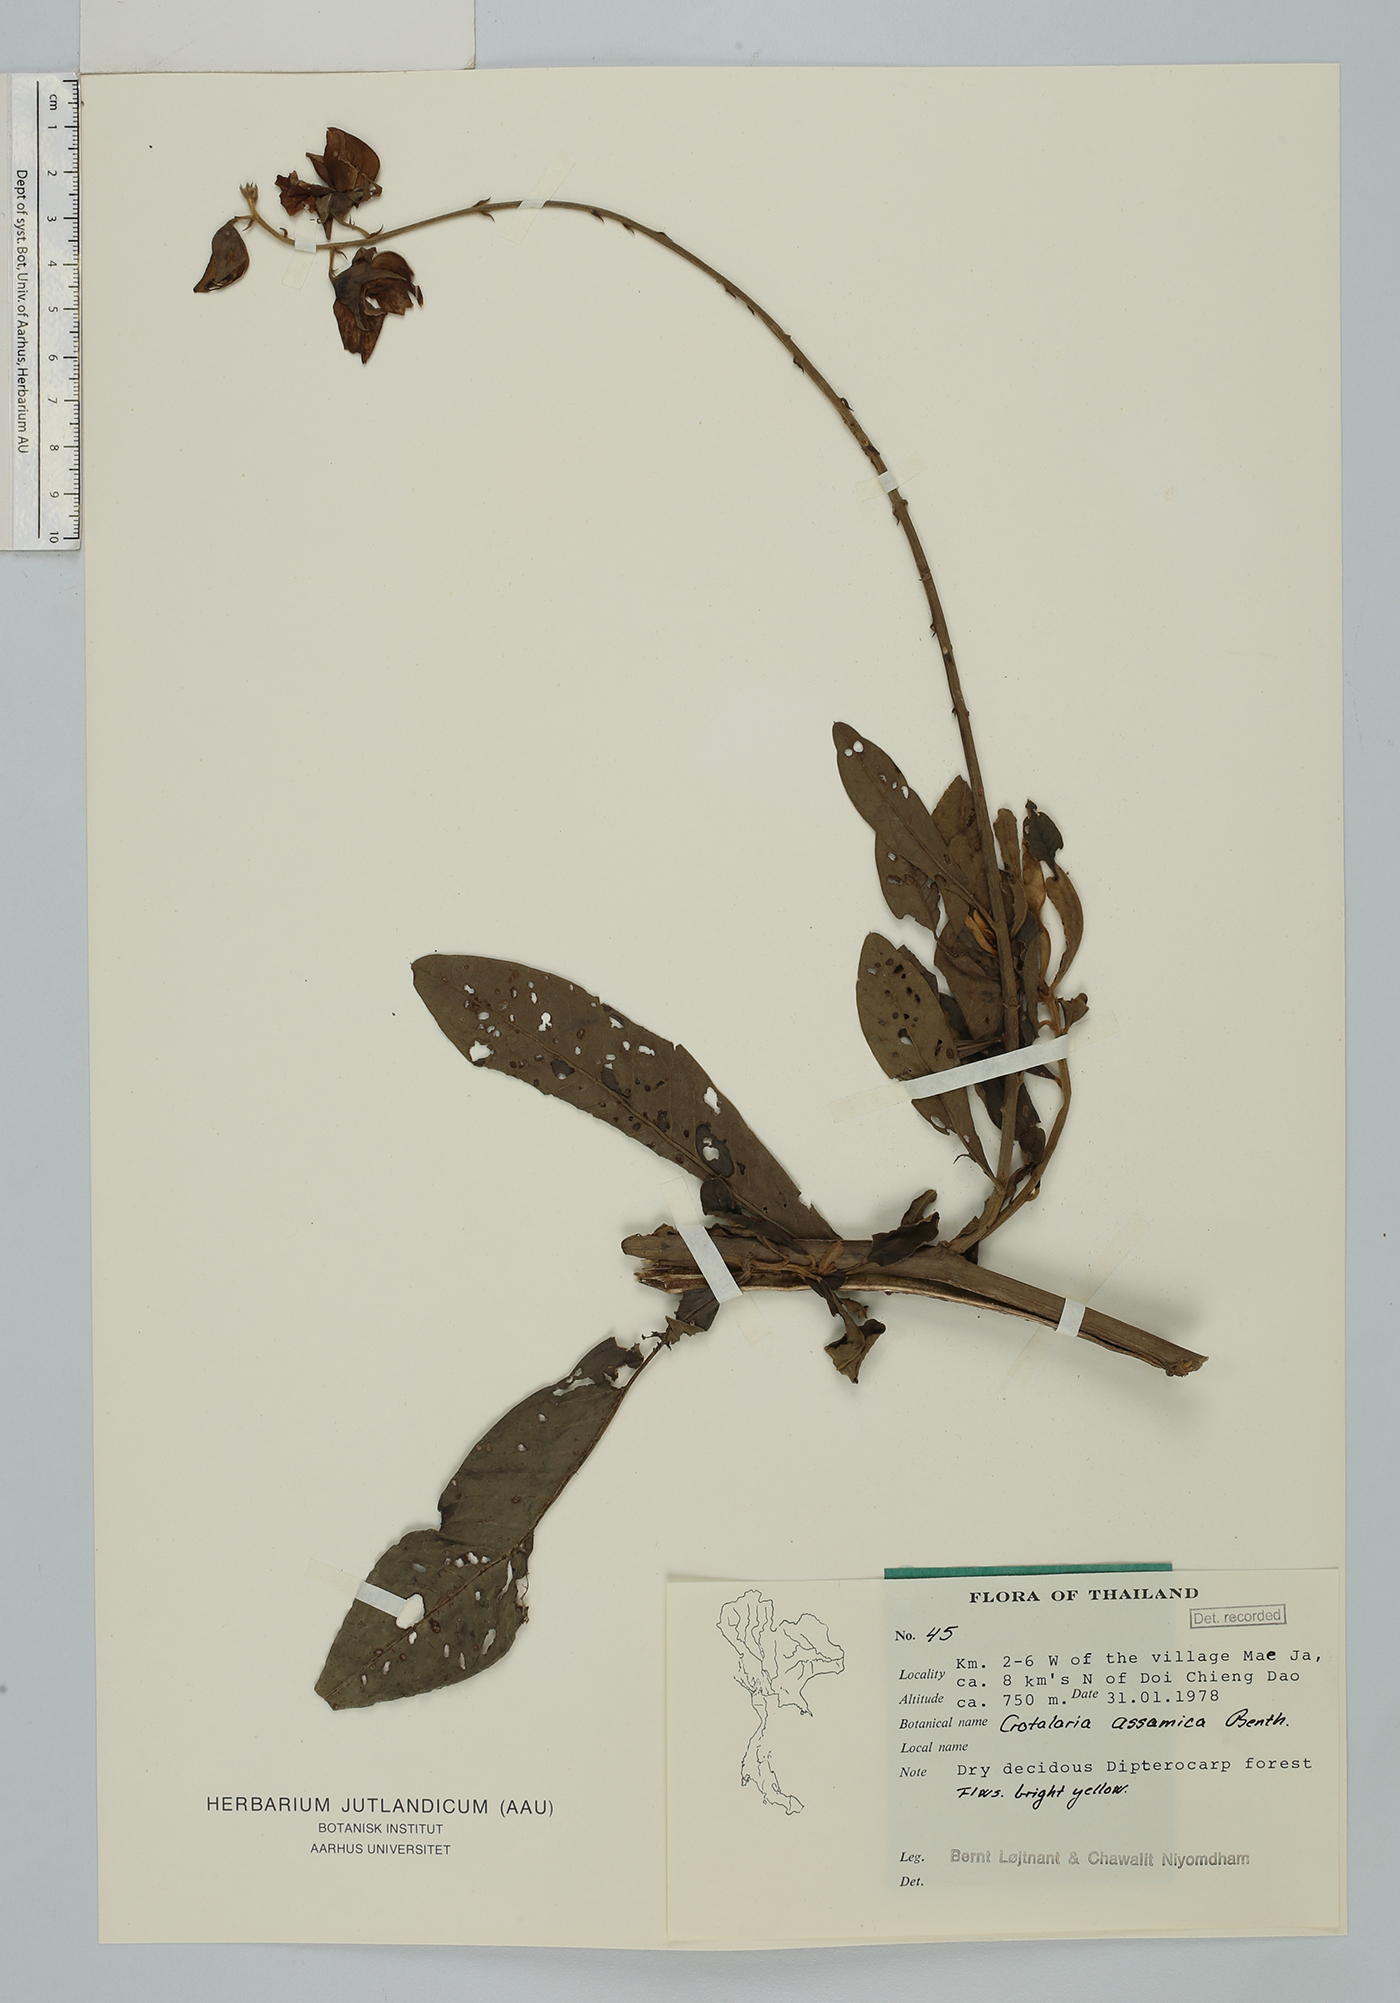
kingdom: Plantae
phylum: Tracheophyta
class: Magnoliopsida
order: Fabales
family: Fabaceae
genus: Crotalaria
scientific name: Crotalaria sericea
